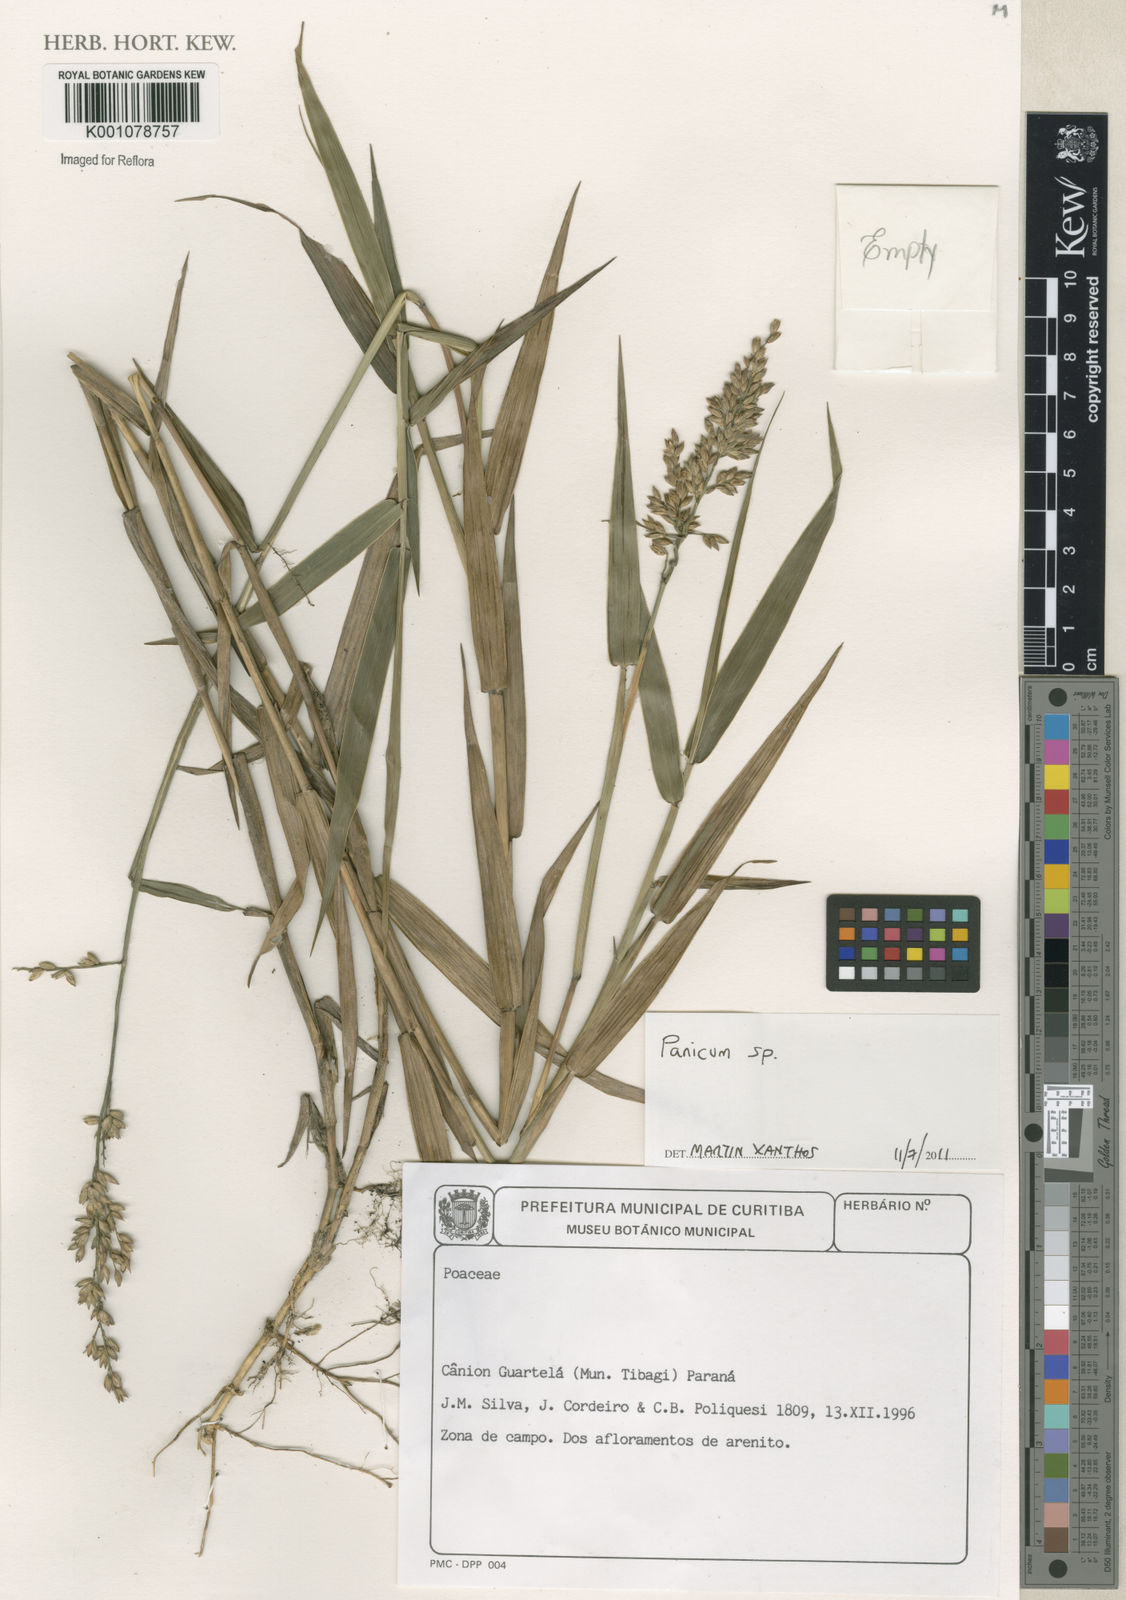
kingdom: Plantae
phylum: Tracheophyta
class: Liliopsida
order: Poales
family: Poaceae
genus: Panicum
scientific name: Panicum
